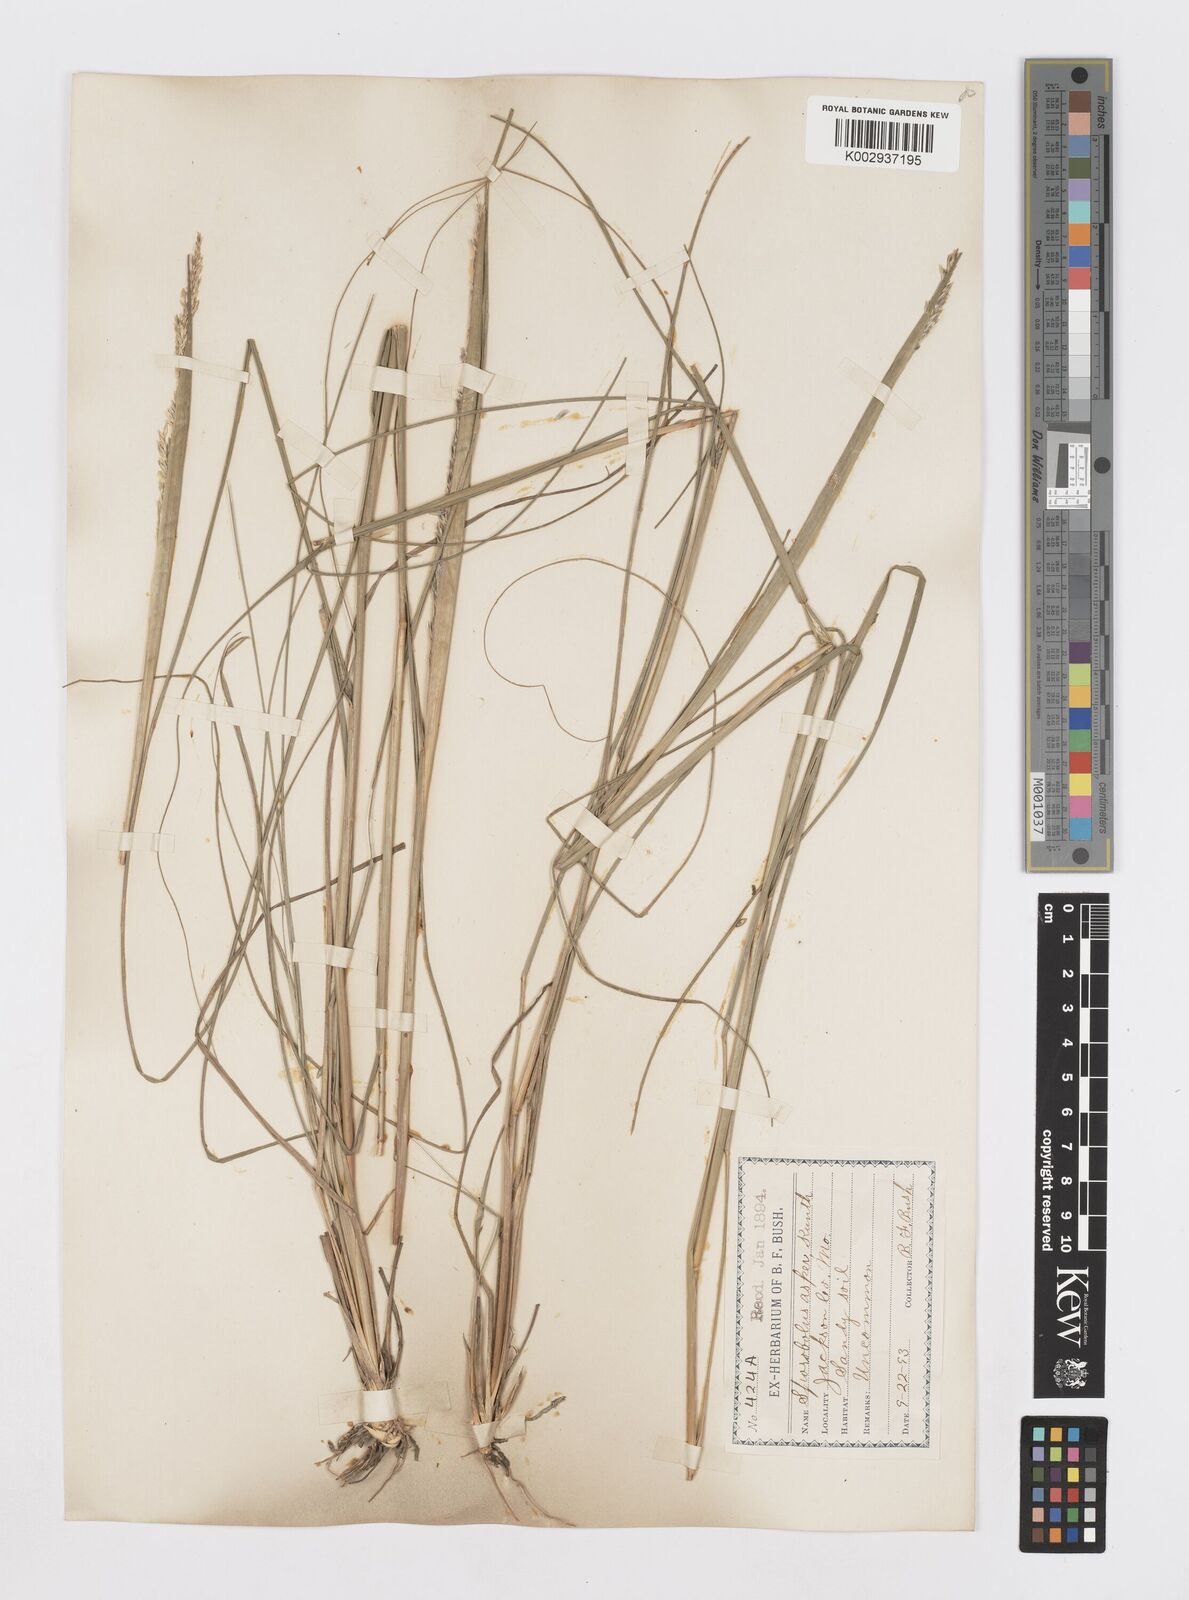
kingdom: Plantae
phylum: Tracheophyta
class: Liliopsida
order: Poales
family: Poaceae
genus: Sporobolus
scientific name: Sporobolus compositus
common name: Rough dropseed
